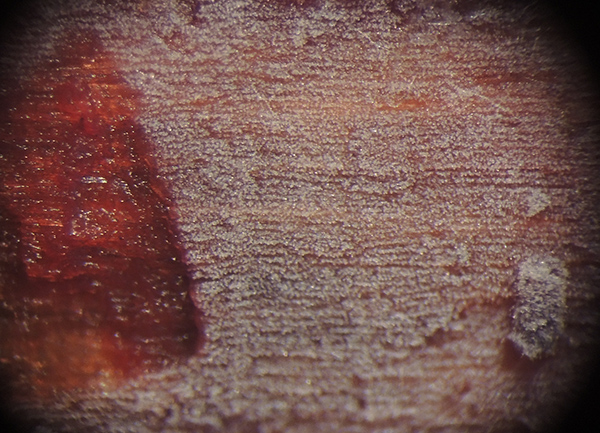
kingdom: Fungi
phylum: Basidiomycota
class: Agaricomycetes
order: Trechisporales
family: Hydnodontaceae
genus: Sphaerobasidium
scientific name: Sphaerobasidium minutum
